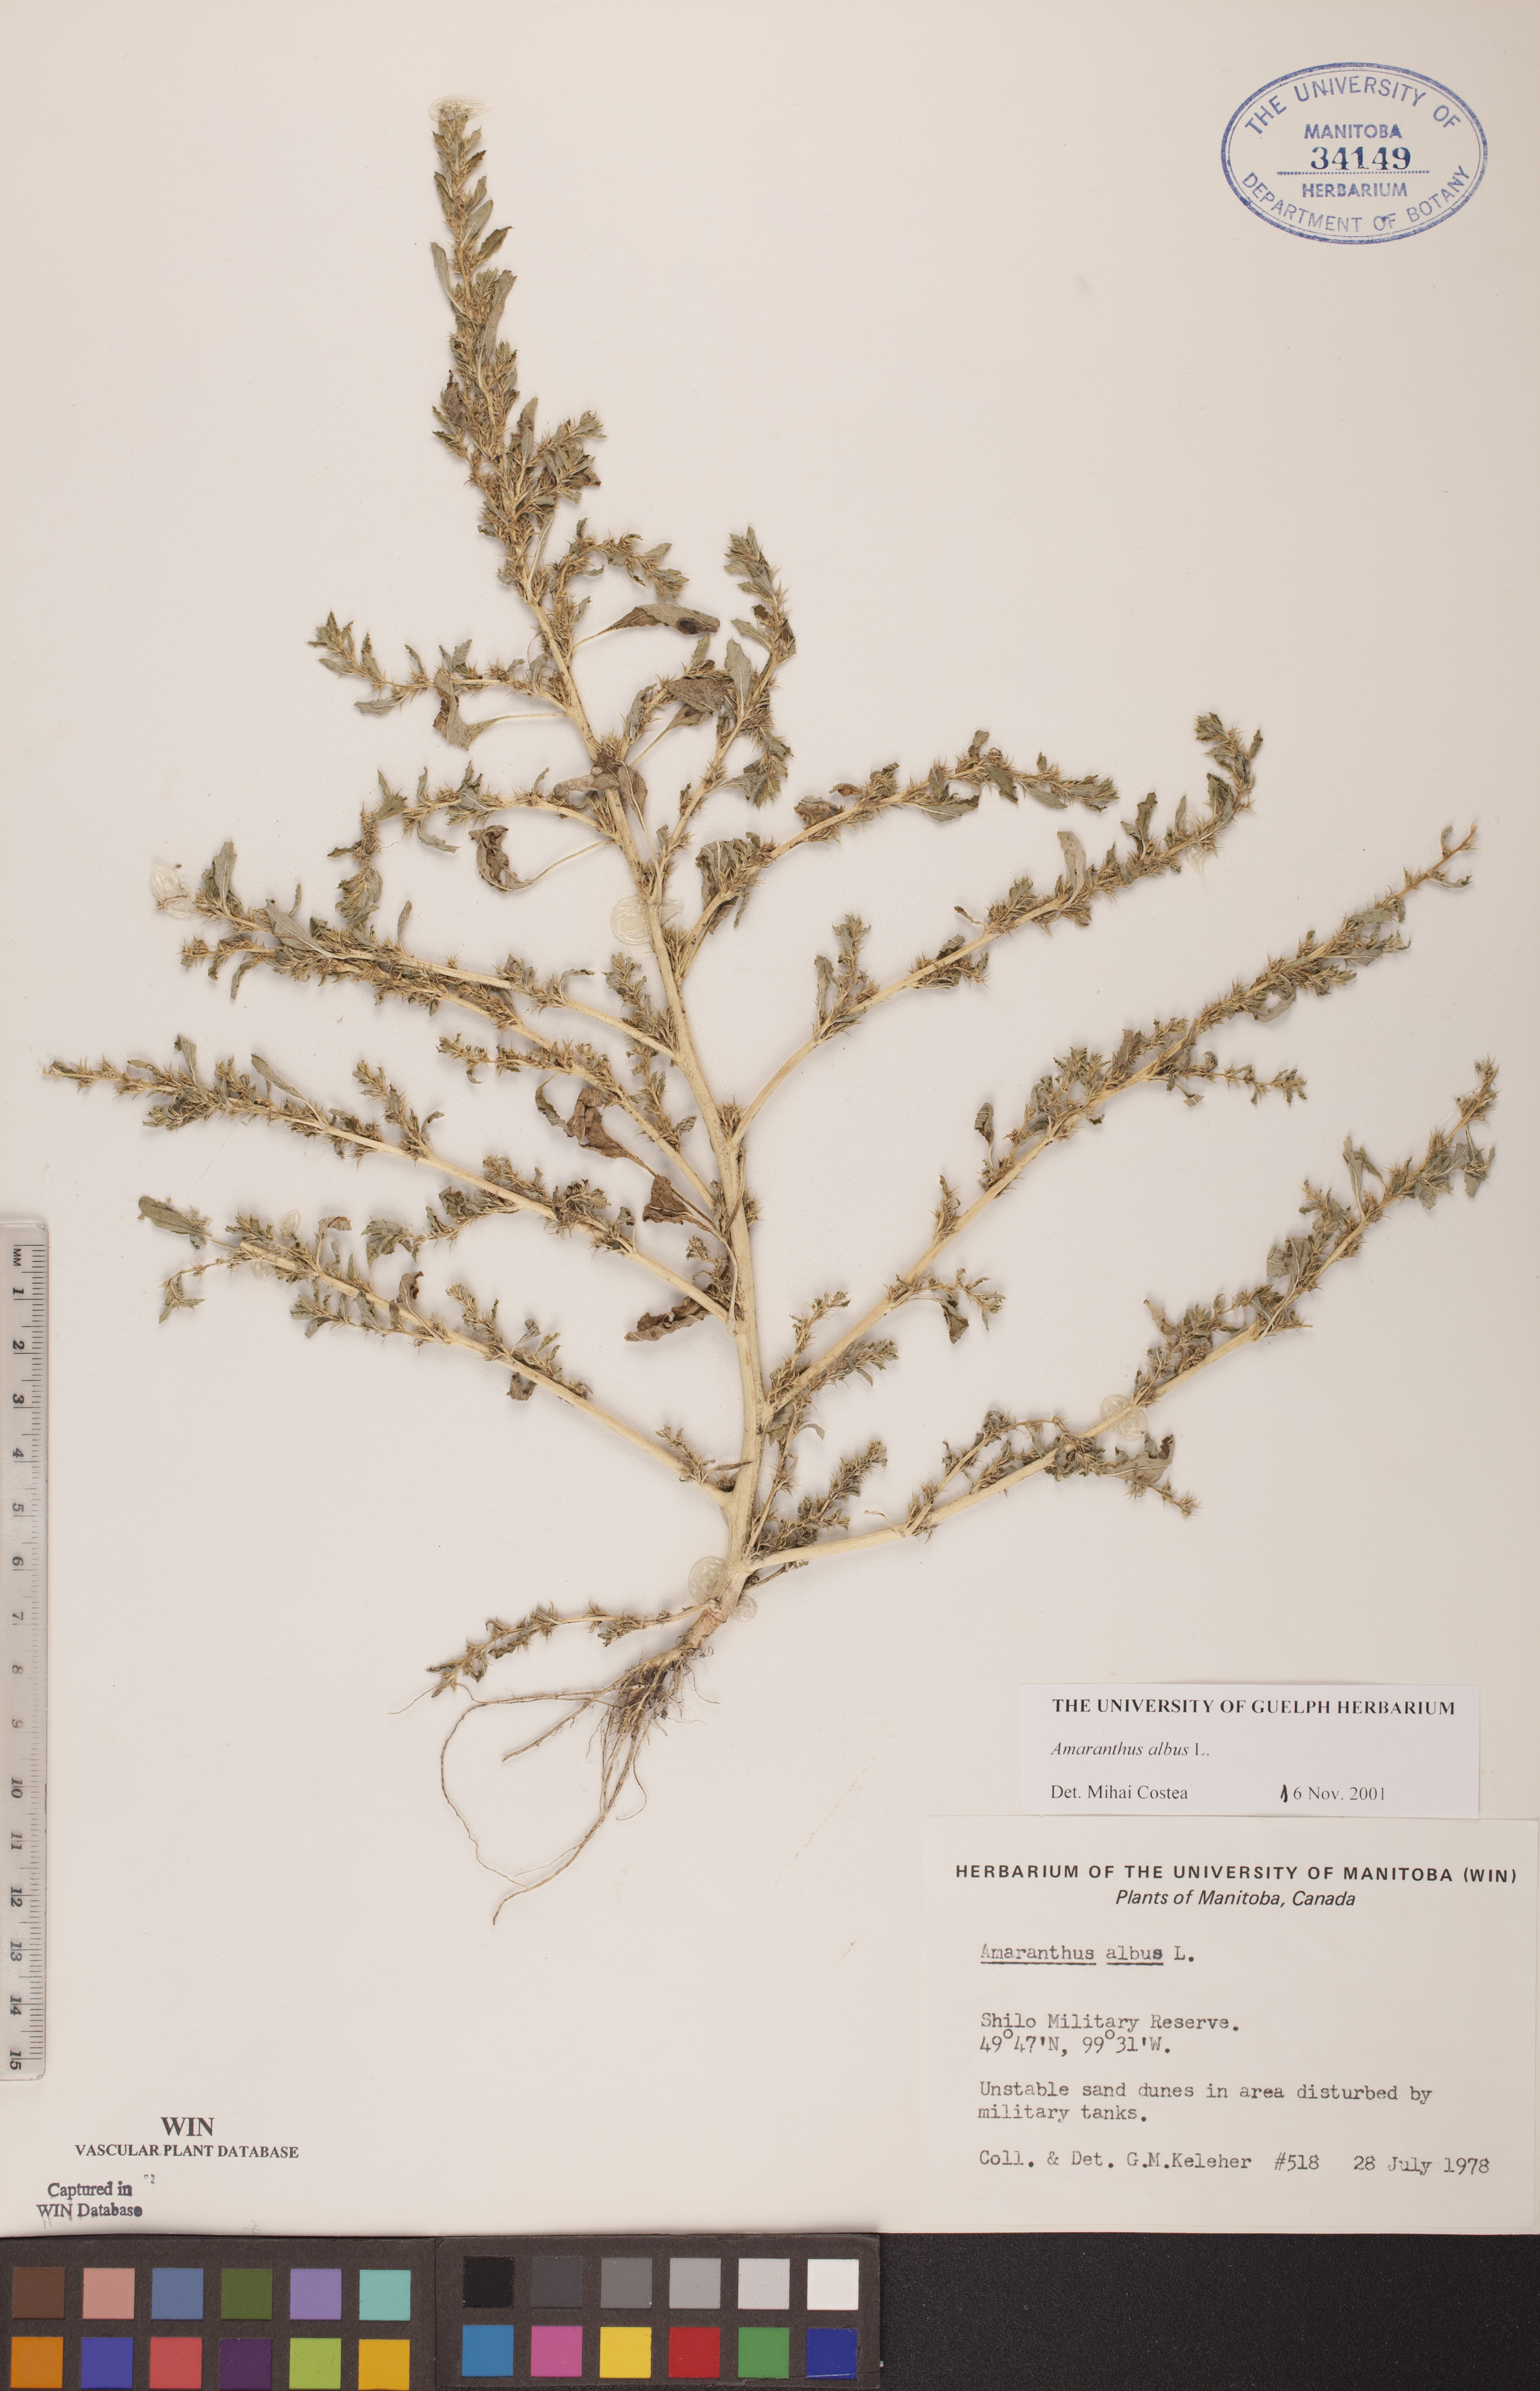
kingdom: Plantae
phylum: Tracheophyta
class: Magnoliopsida
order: Caryophyllales
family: Amaranthaceae
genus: Amaranthus
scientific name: Amaranthus albus
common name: White pigweed
